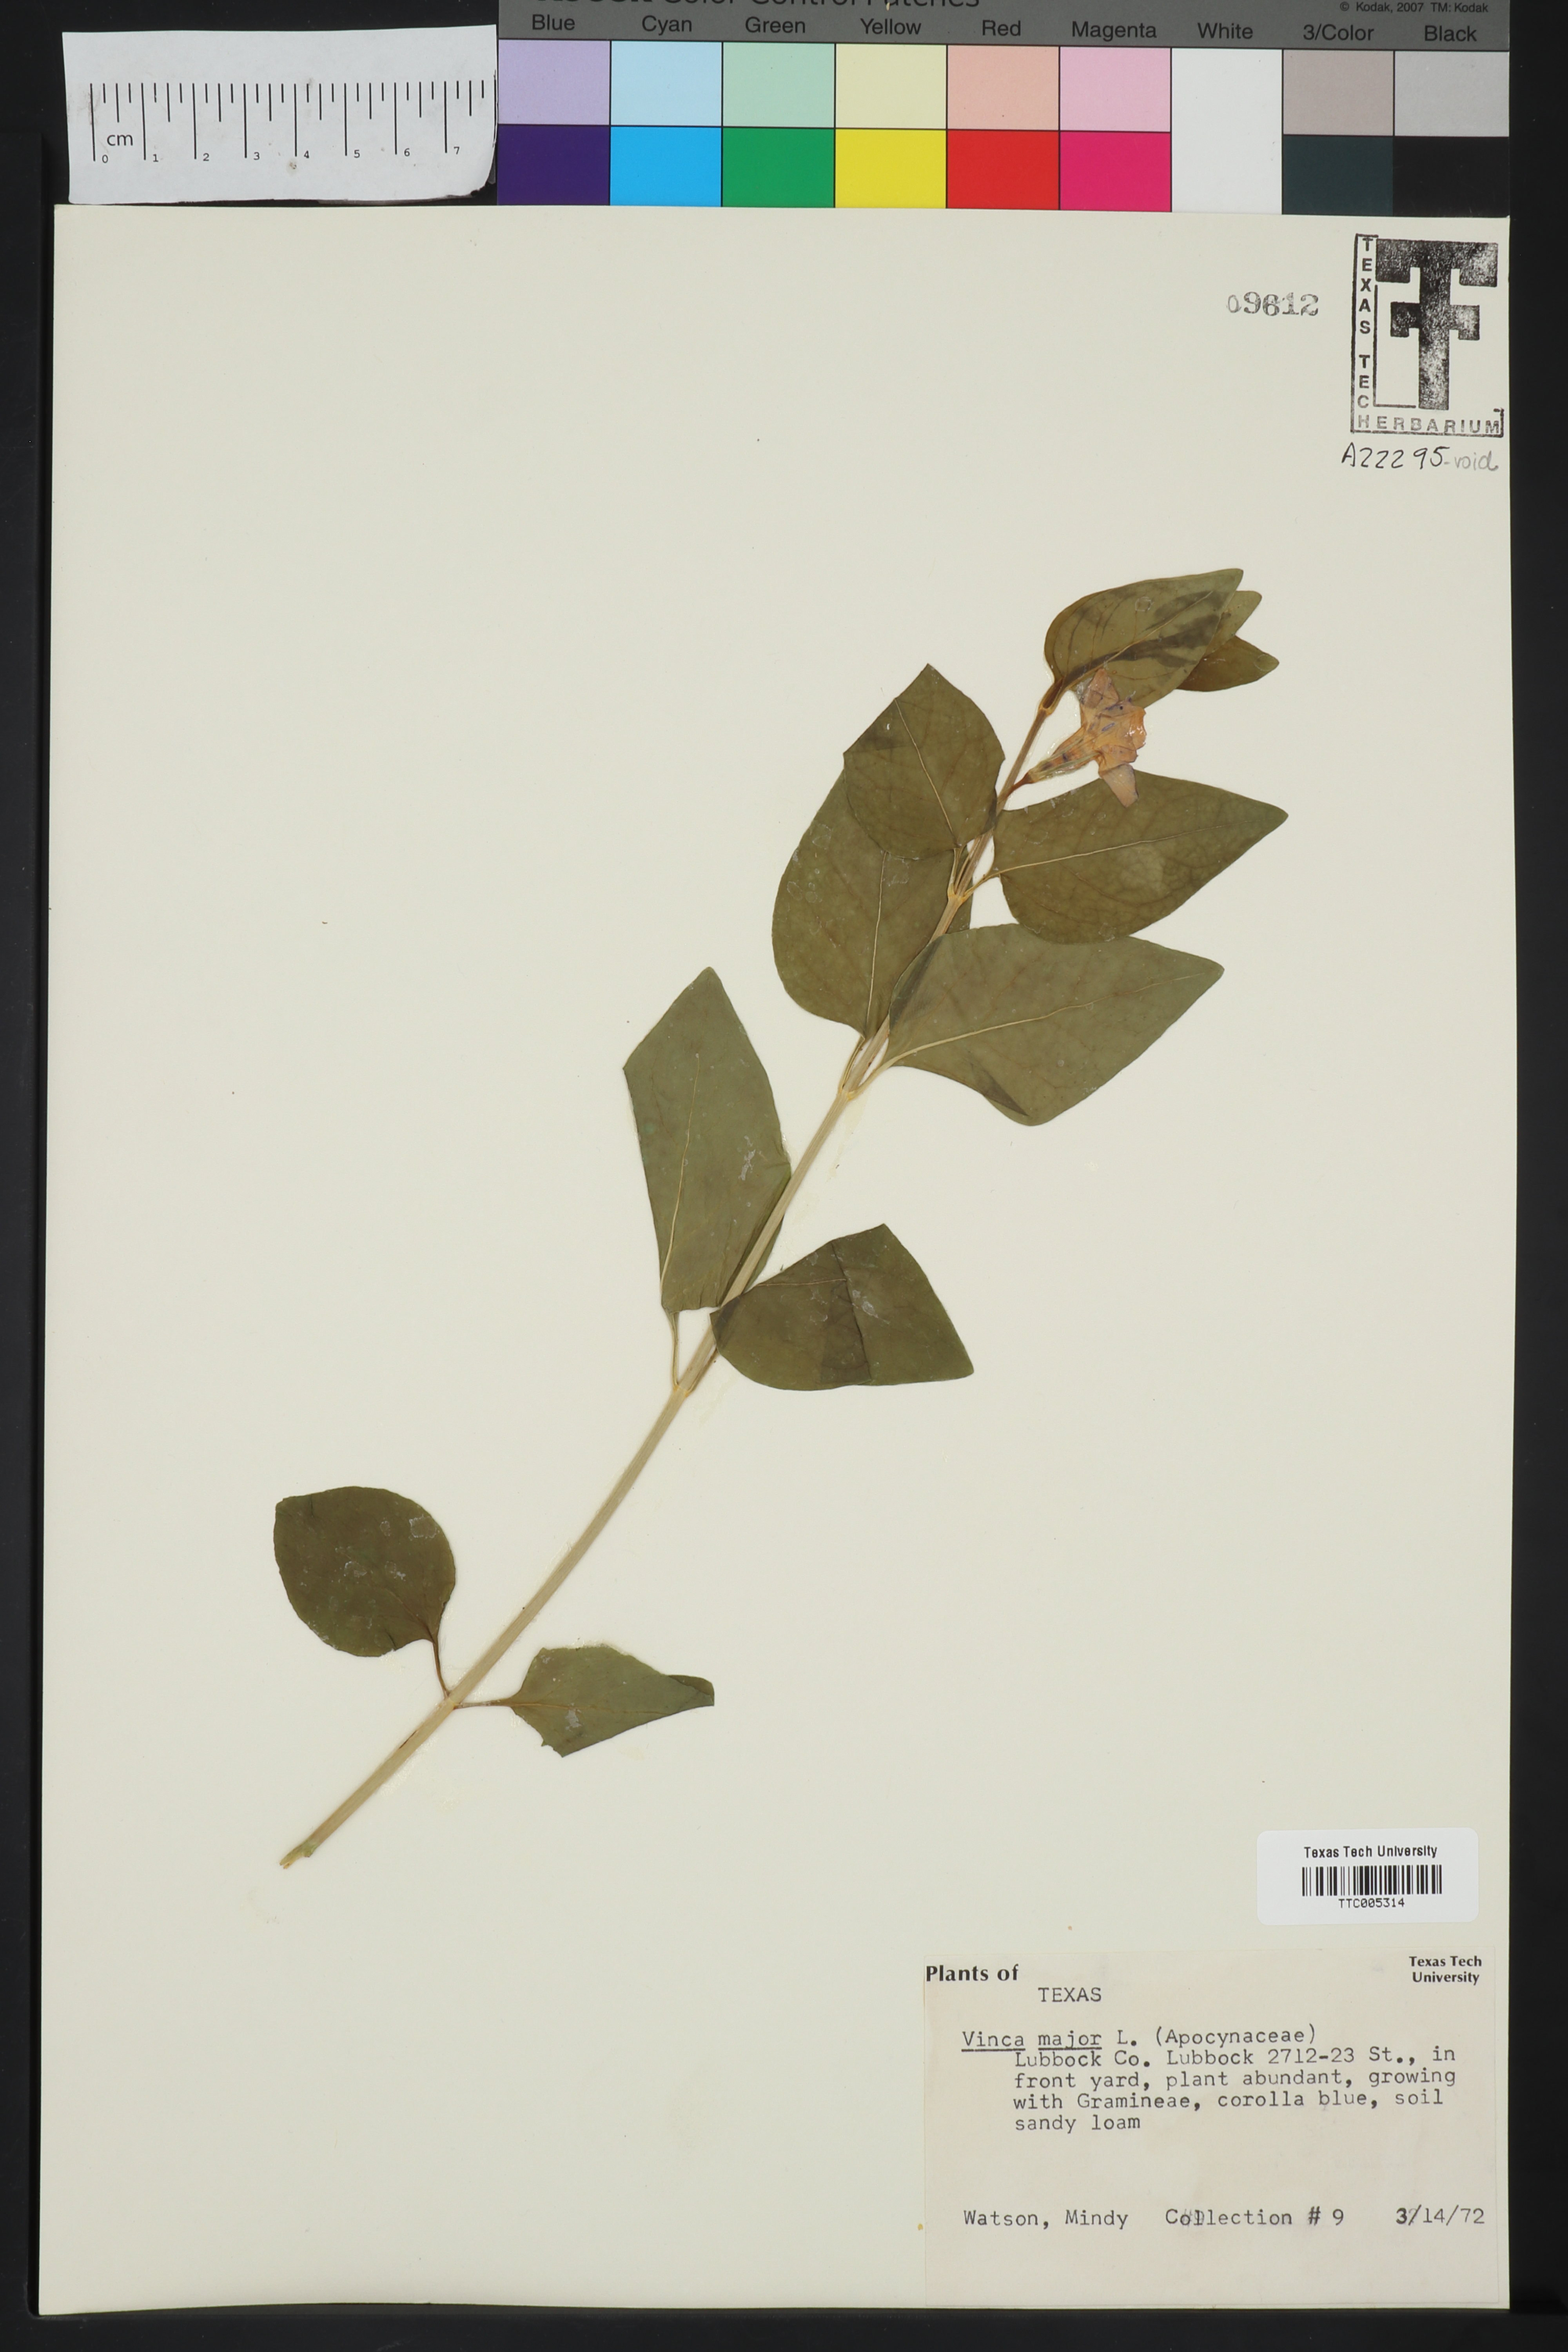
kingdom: Plantae
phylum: Tracheophyta
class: Magnoliopsida
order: Gentianales
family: Apocynaceae
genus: Vinca
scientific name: Vinca major
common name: Greater periwinkle
